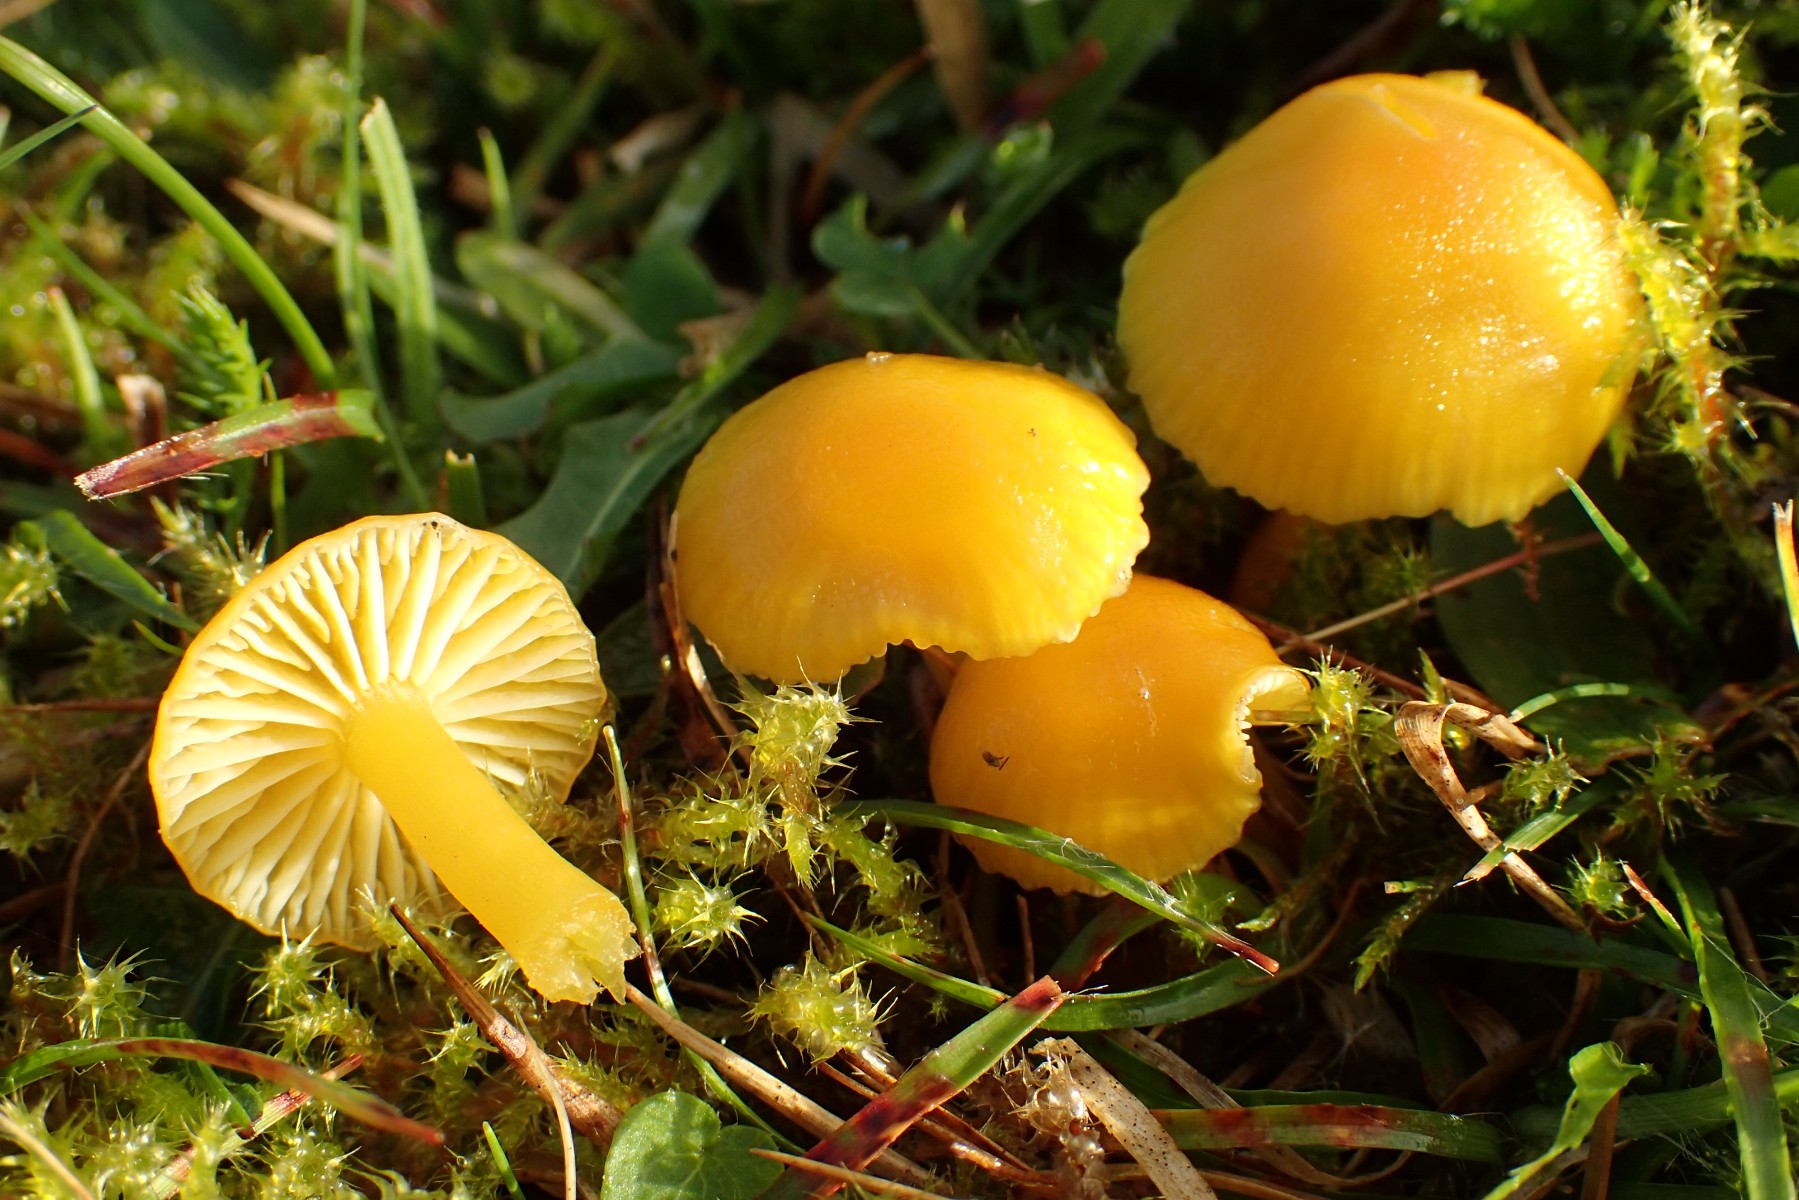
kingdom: Fungi
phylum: Basidiomycota
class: Agaricomycetes
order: Agaricales
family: Hygrophoraceae
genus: Hygrocybe
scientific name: Hygrocybe ceracea
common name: voksgul vokshat
